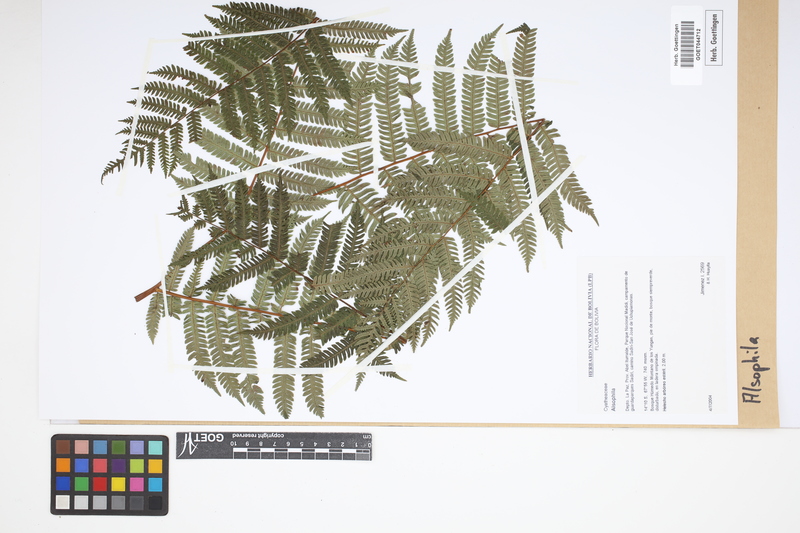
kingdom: Plantae
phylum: Tracheophyta
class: Polypodiopsida
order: Cyatheales
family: Cyatheaceae
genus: Alsophila
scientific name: Alsophila
